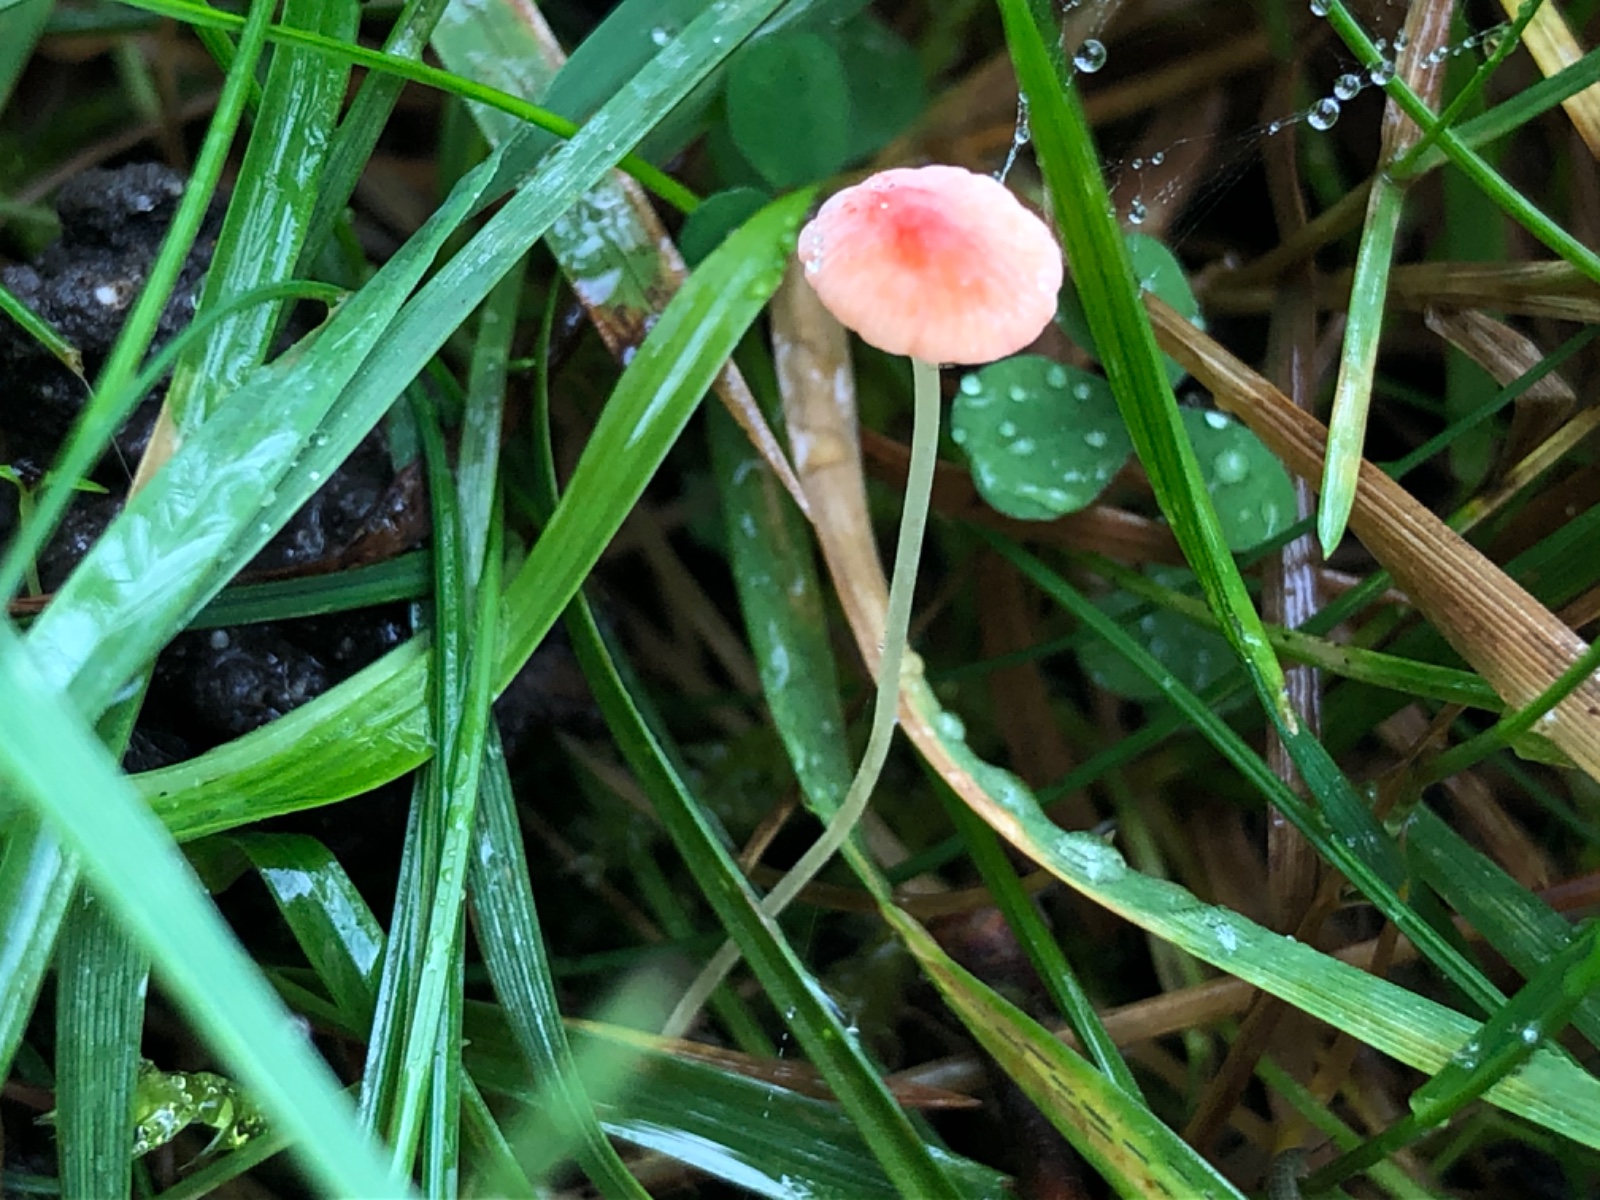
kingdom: Fungi
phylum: Basidiomycota
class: Agaricomycetes
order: Agaricales
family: Mycenaceae
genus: Mycena
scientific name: Mycena acicula
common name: orange huesvamp
